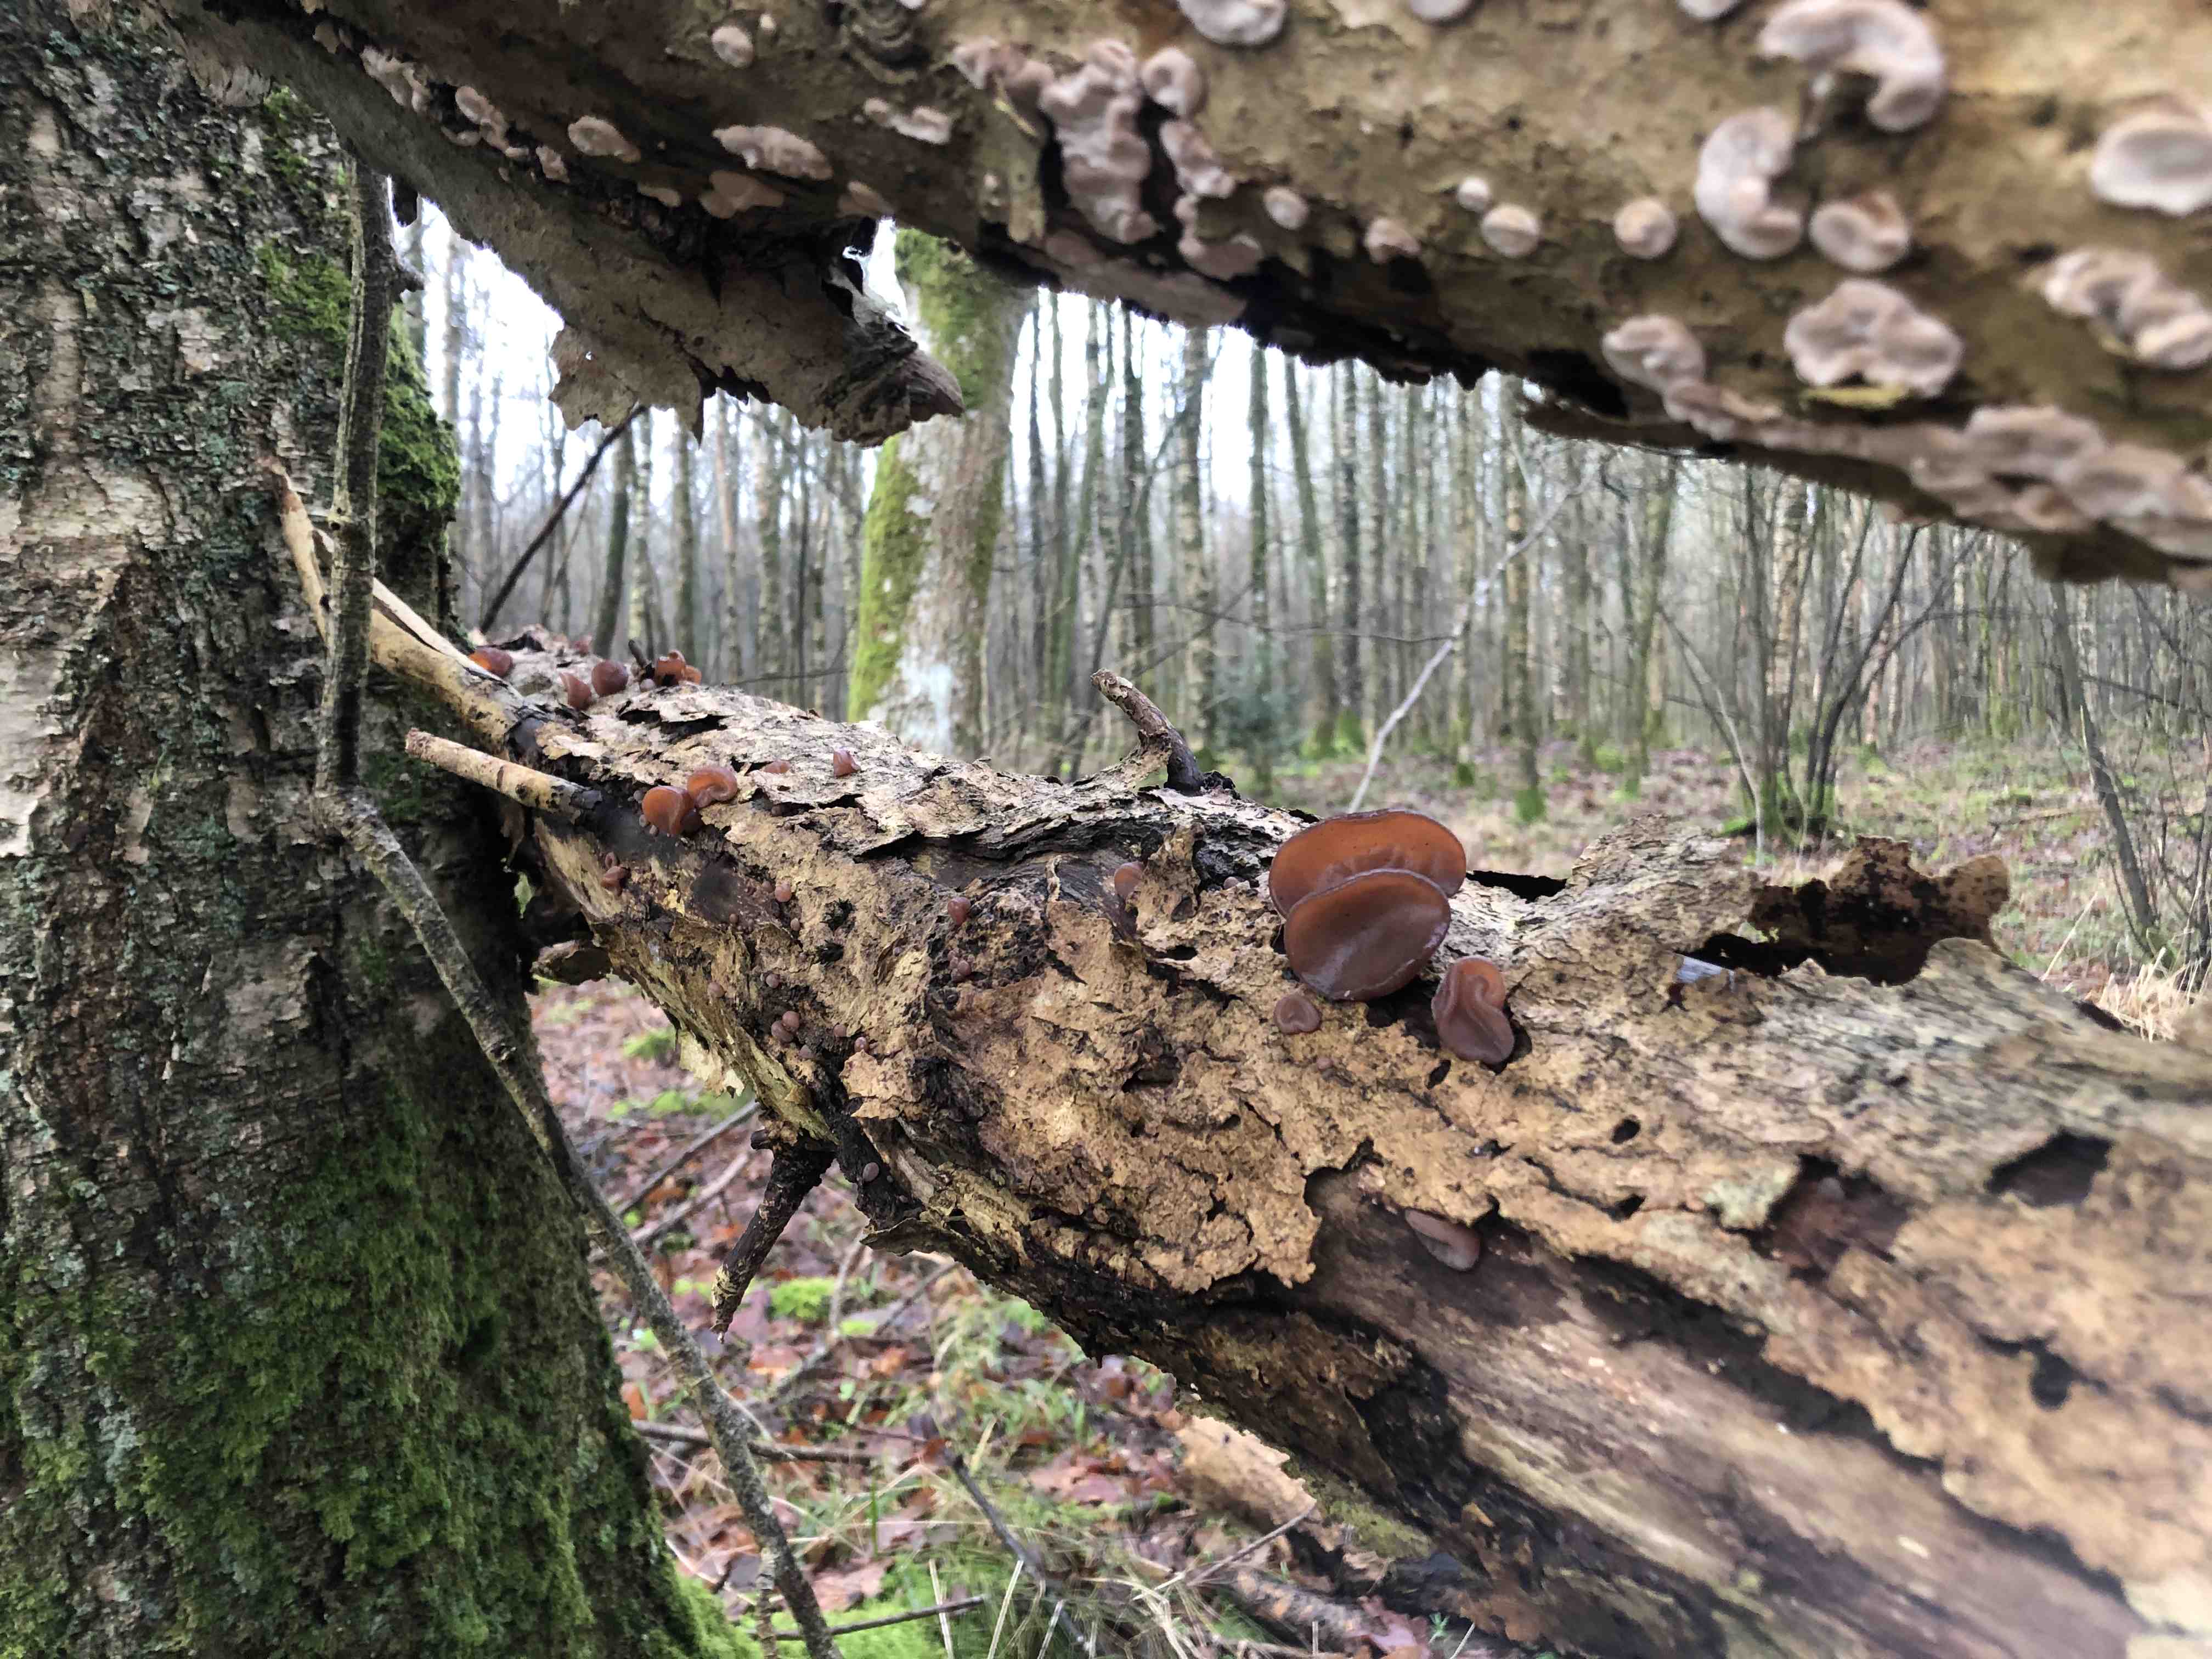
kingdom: Fungi
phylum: Basidiomycota
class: Agaricomycetes
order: Auriculariales
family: Auriculariaceae
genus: Auricularia
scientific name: Auricularia auricula-judae
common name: almindelig judasøre
